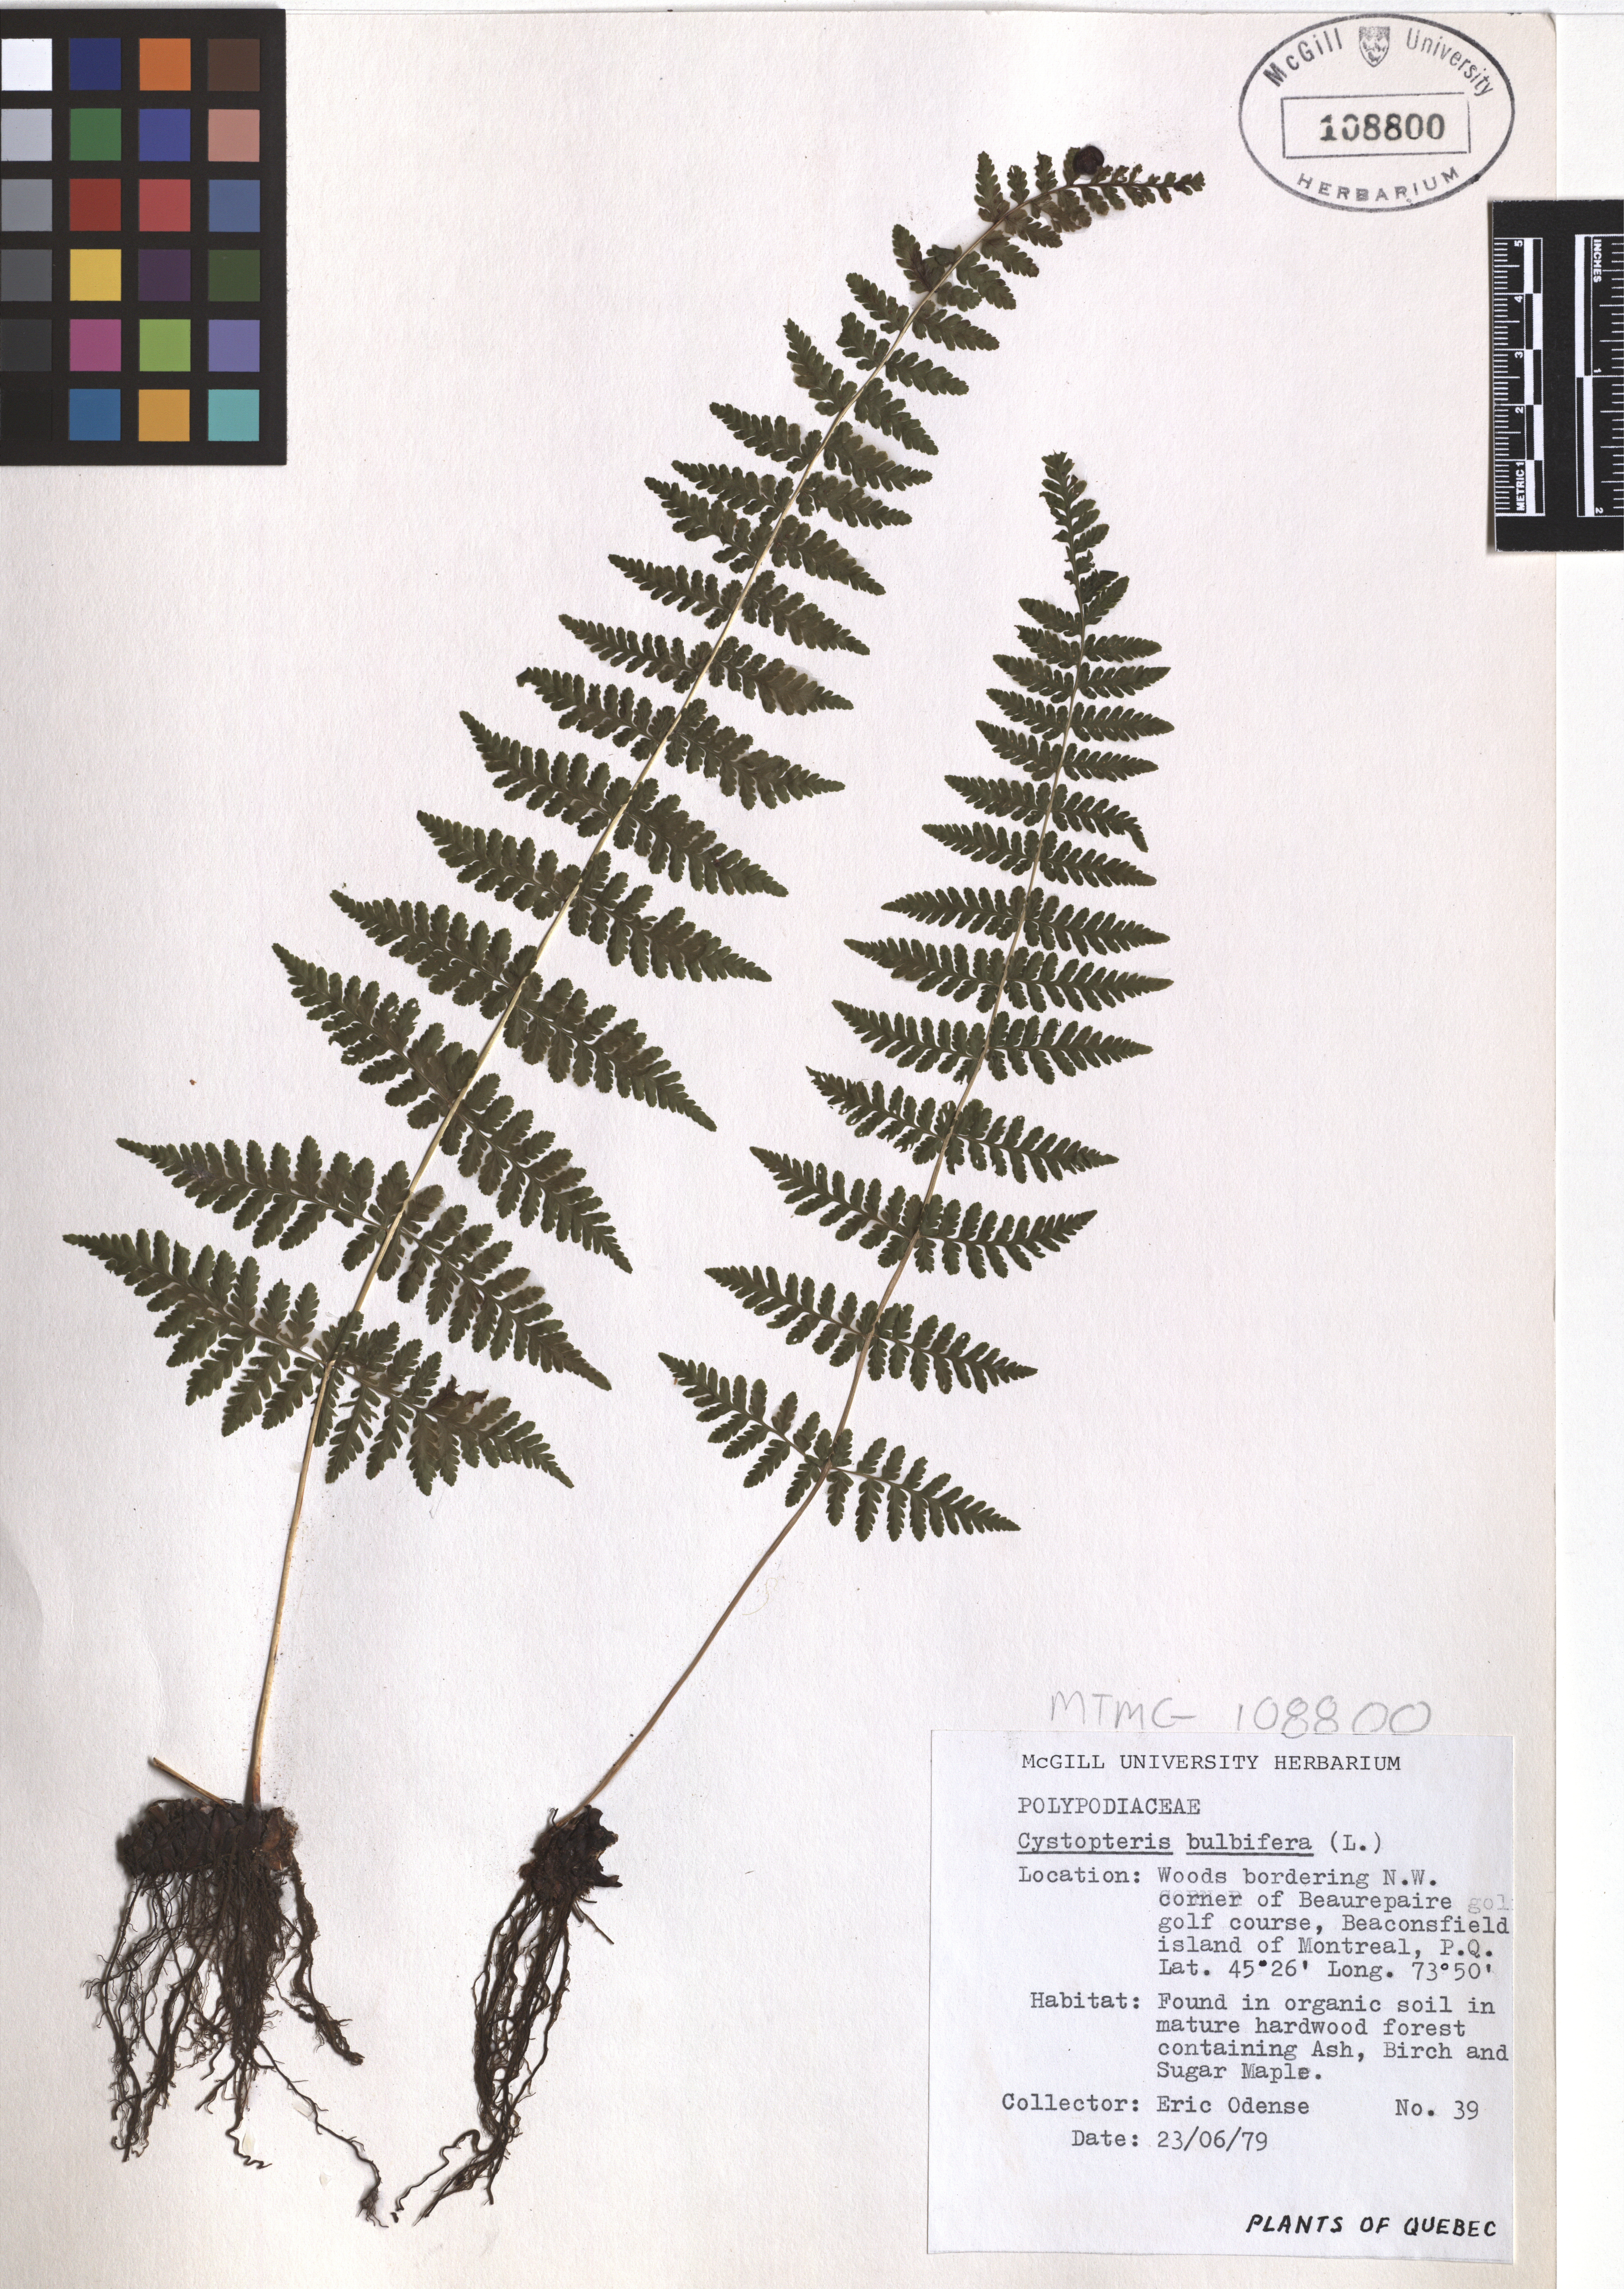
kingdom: Plantae
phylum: Tracheophyta
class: Polypodiopsida
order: Polypodiales
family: Cystopteridaceae
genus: Cystopteris
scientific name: Cystopteris bulbifera
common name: Bulblet bladder fern
